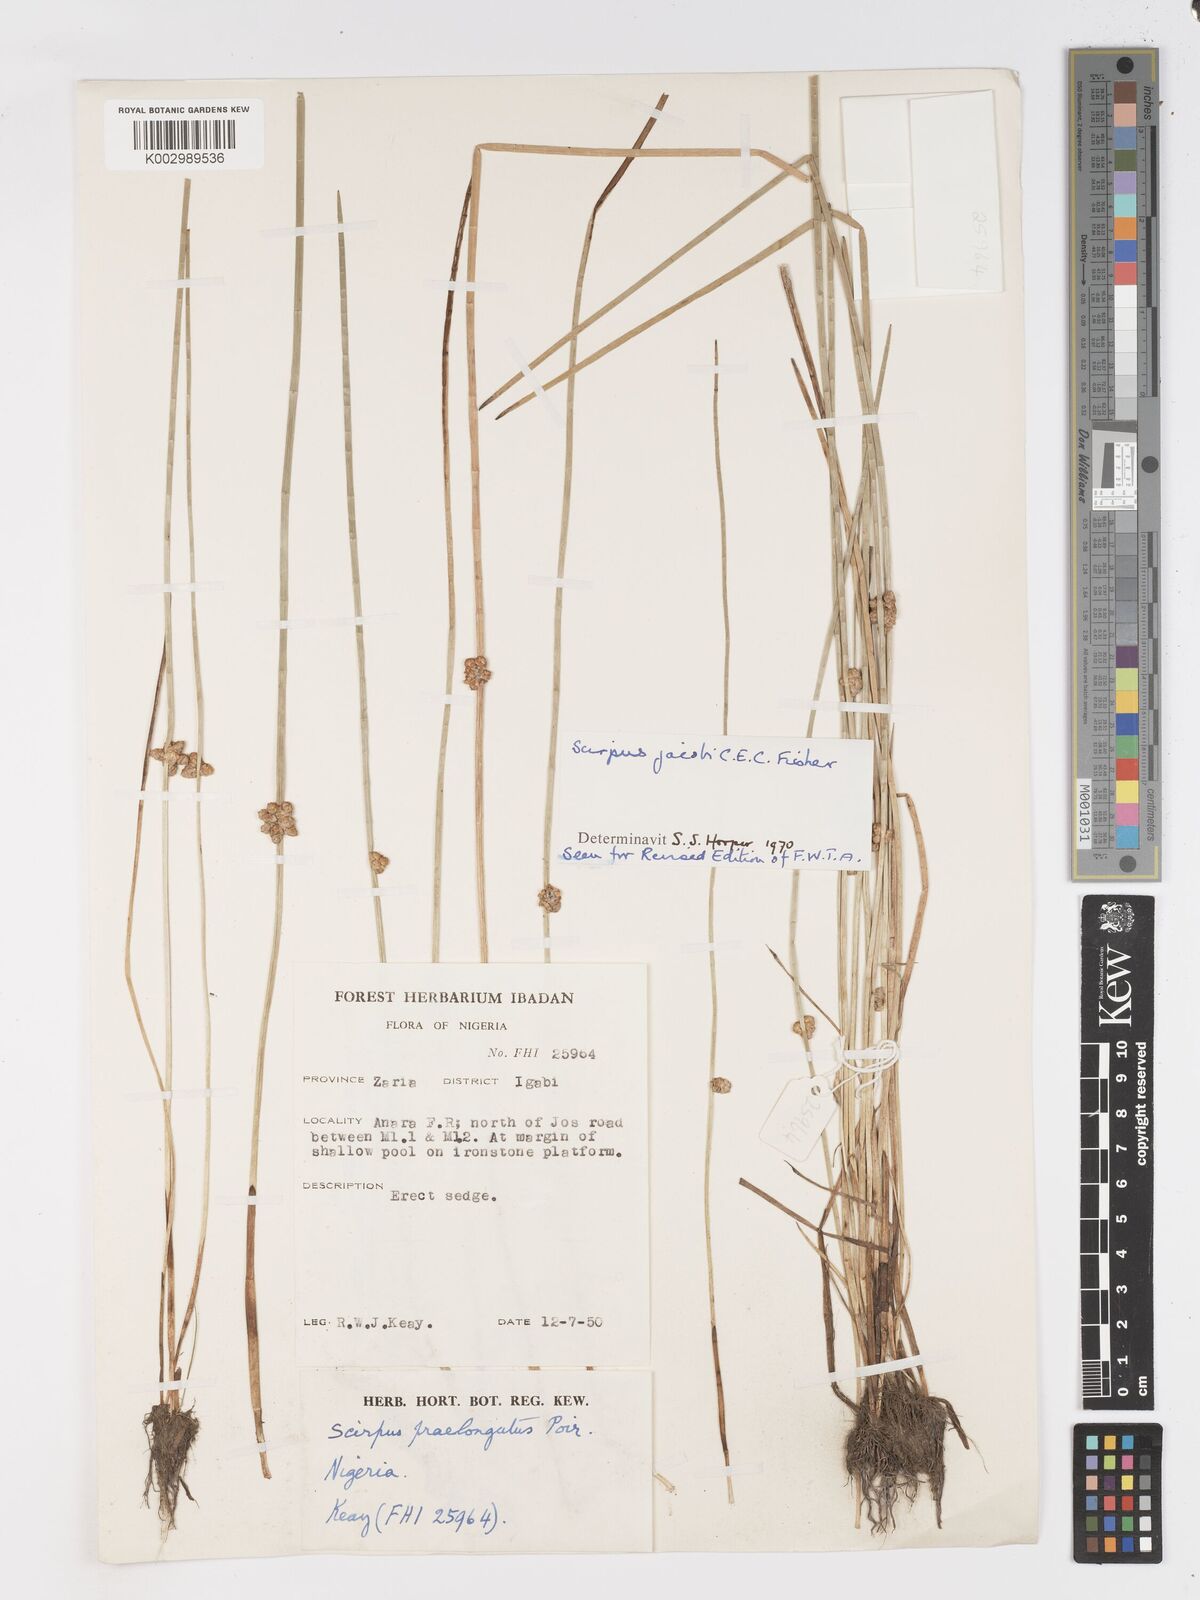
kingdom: Plantae
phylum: Tracheophyta
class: Liliopsida
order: Poales
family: Cyperaceae
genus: Schoenoplectiella
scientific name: Schoenoplectiella praelongata
